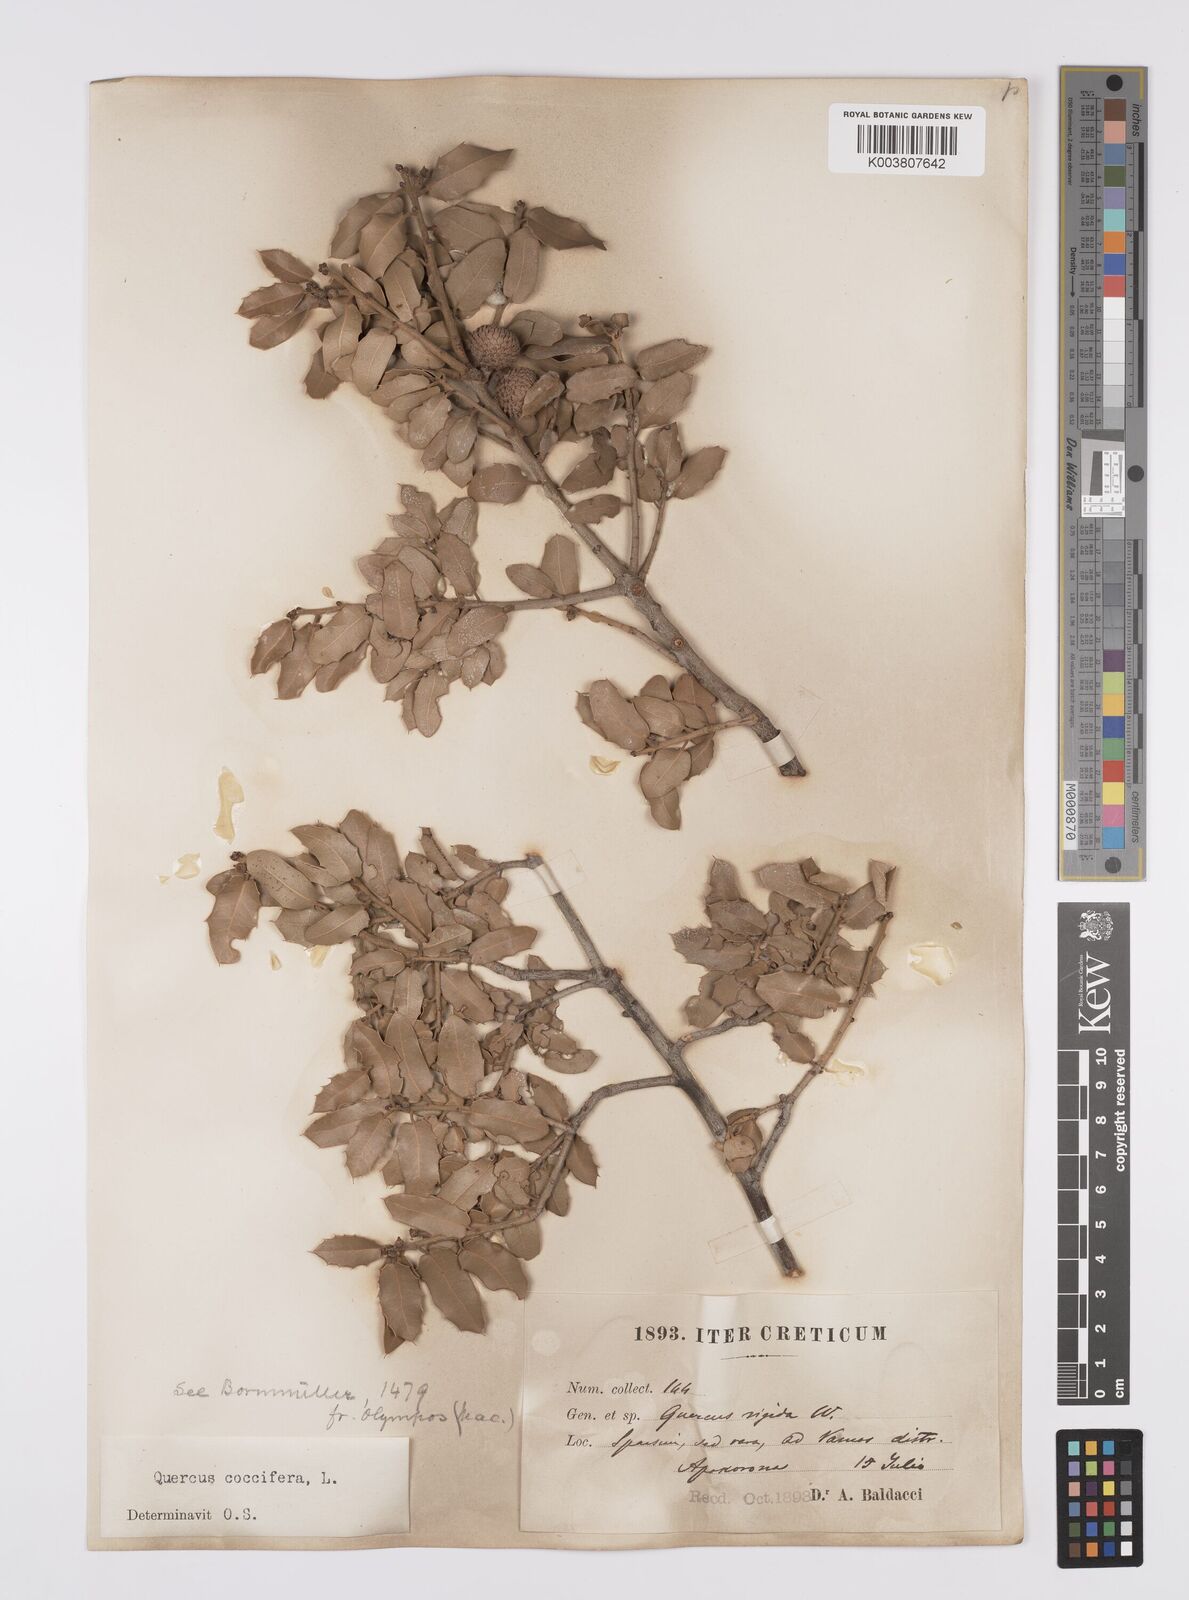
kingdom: Plantae
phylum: Tracheophyta
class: Magnoliopsida
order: Fagales
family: Fagaceae
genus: Quercus
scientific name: Quercus coccifera
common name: Kermes oak
